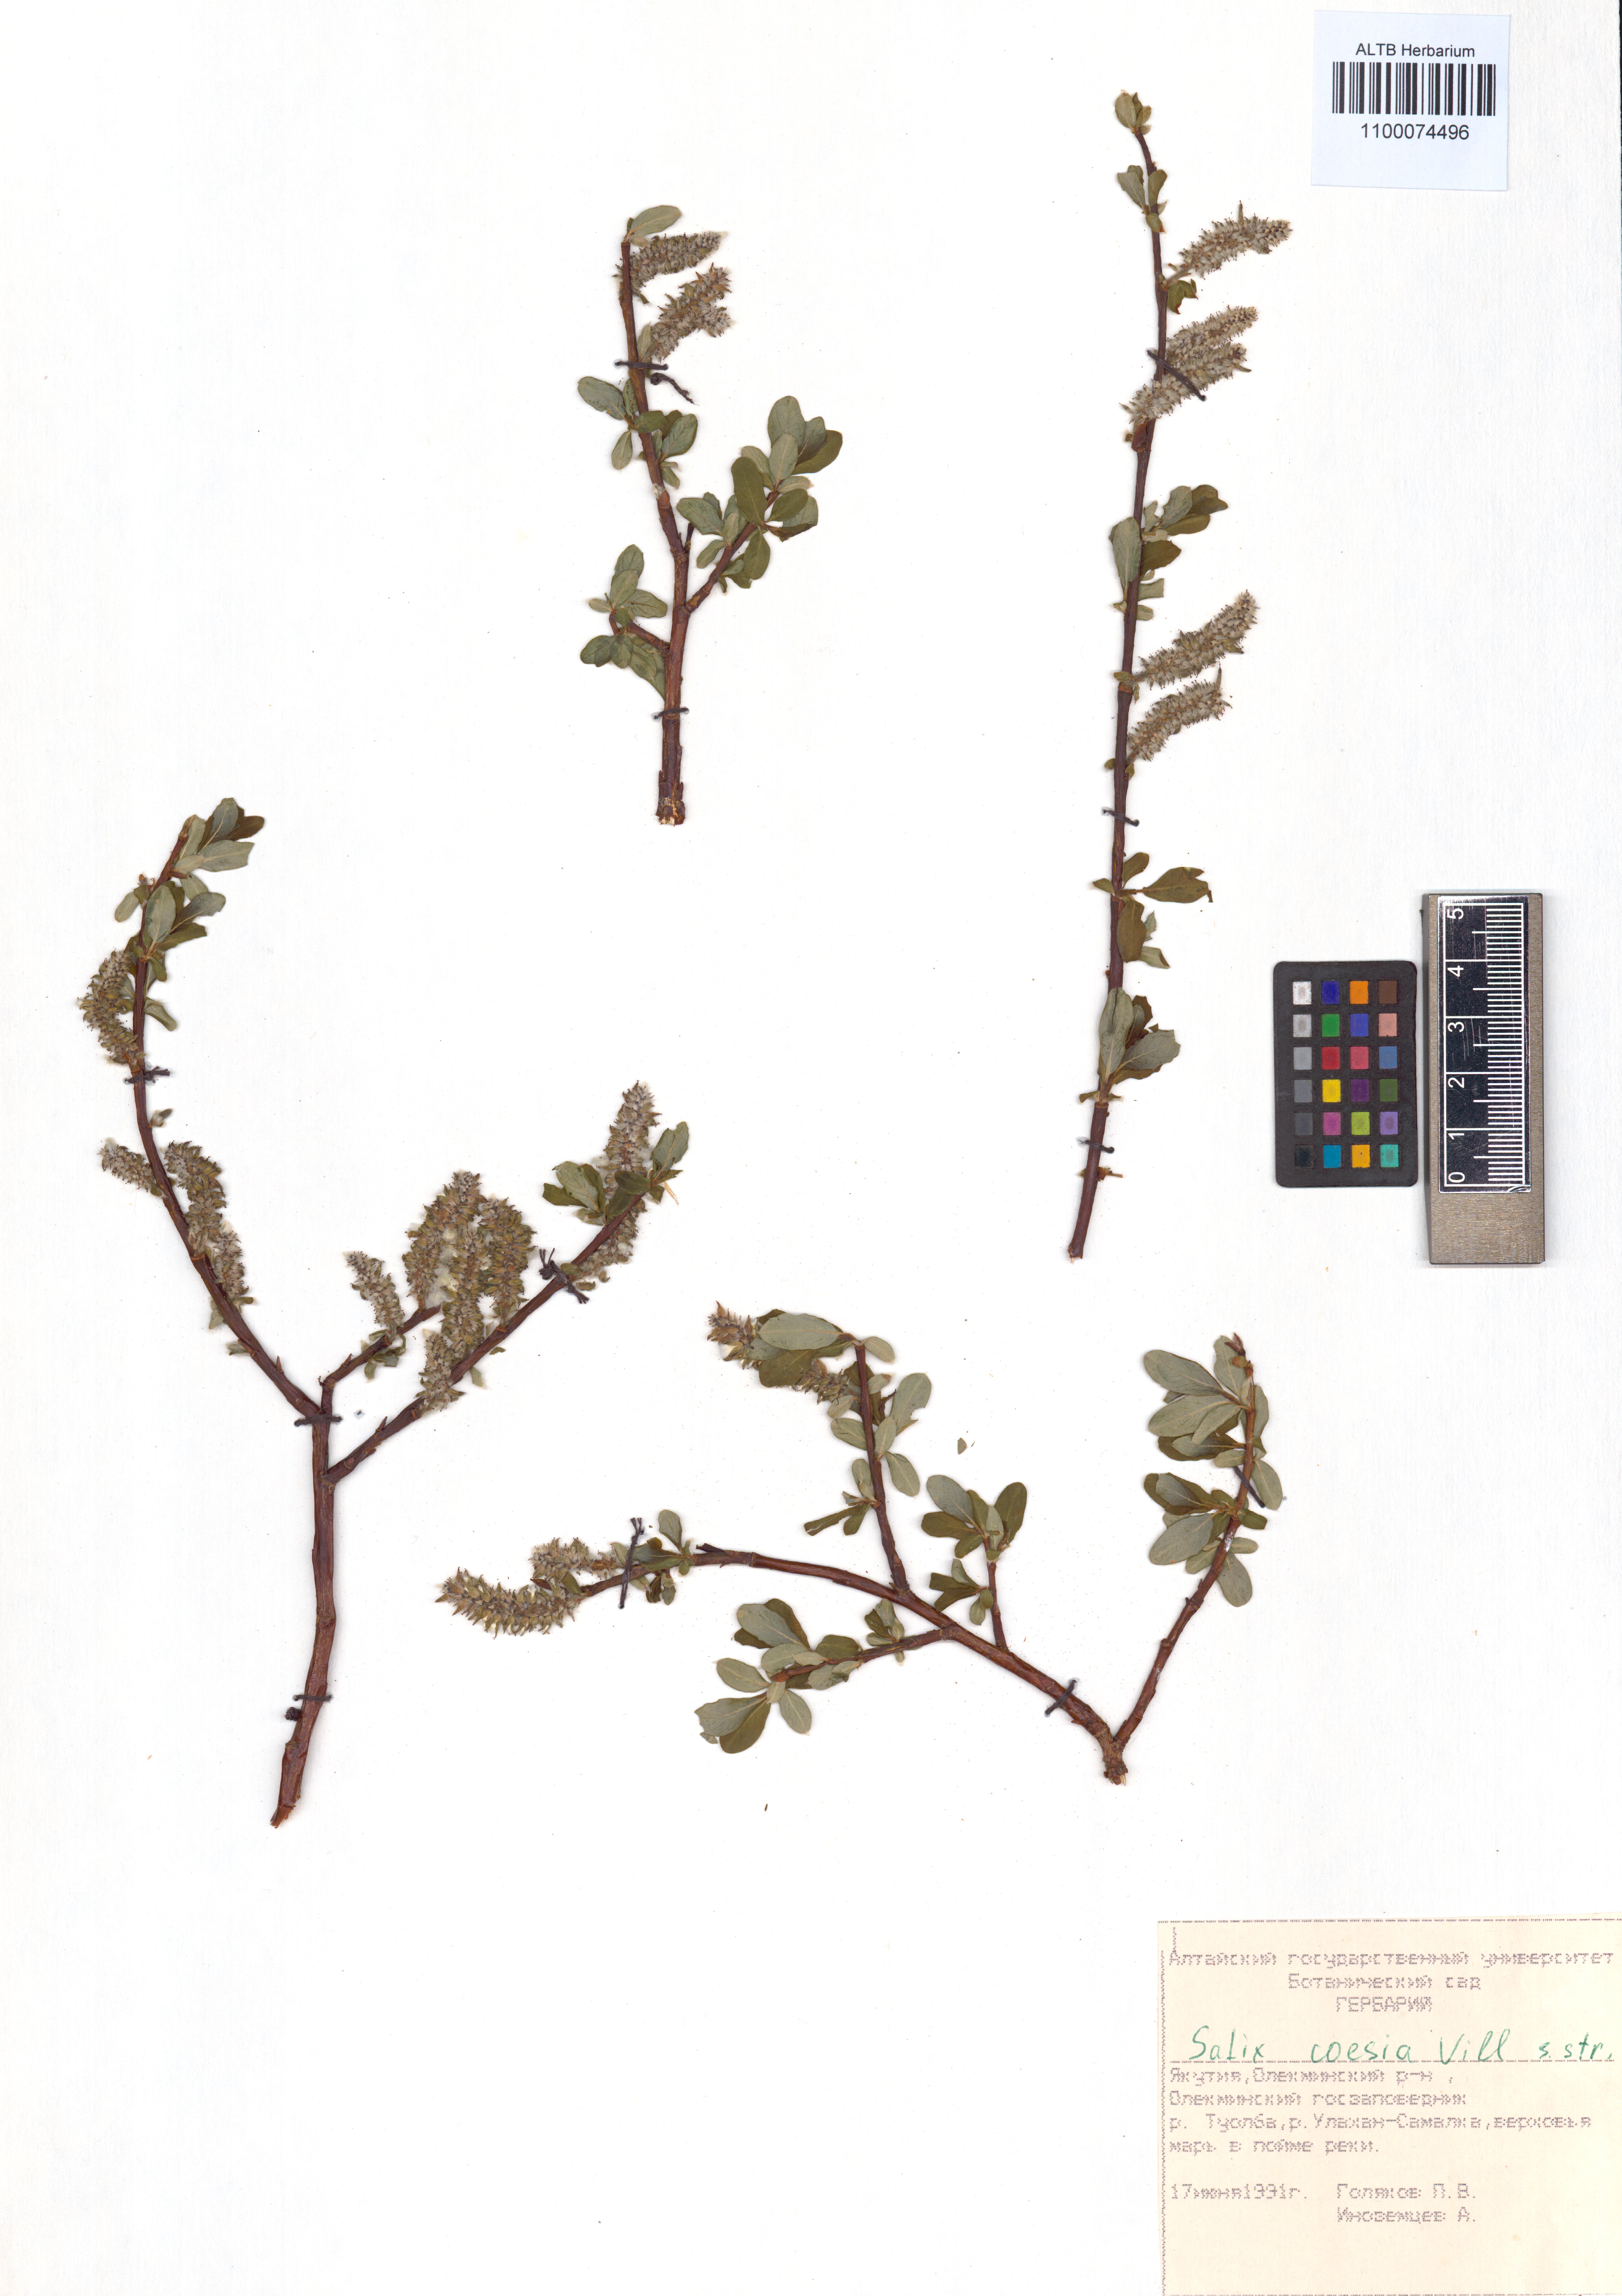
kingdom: Plantae
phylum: Tracheophyta
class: Magnoliopsida
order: Malpighiales
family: Salicaceae
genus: Salix
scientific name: Salix caesia
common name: Blue willow
